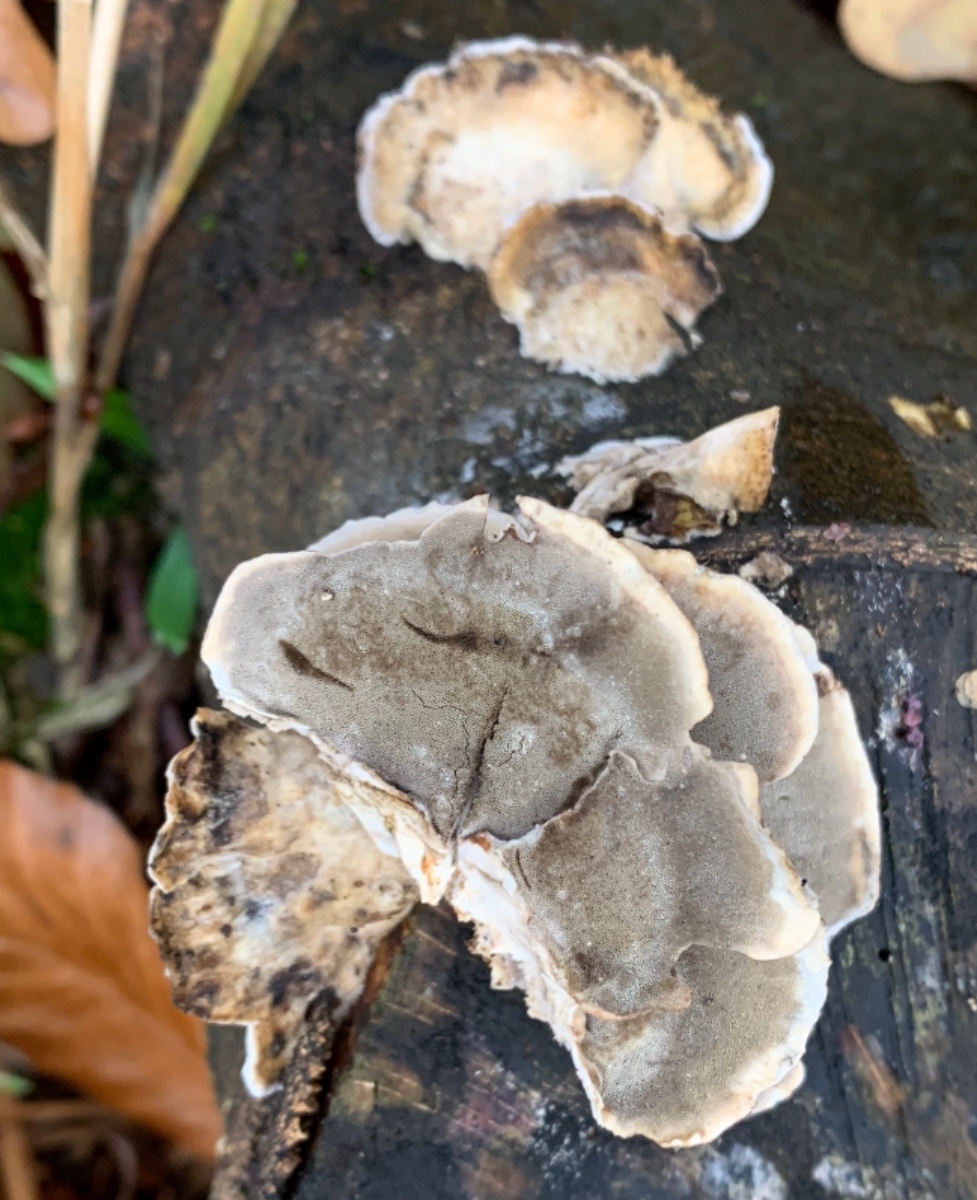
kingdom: Fungi
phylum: Basidiomycota
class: Agaricomycetes
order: Polyporales
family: Phanerochaetaceae
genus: Bjerkandera
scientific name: Bjerkandera adusta
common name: sveden sodporesvamp
